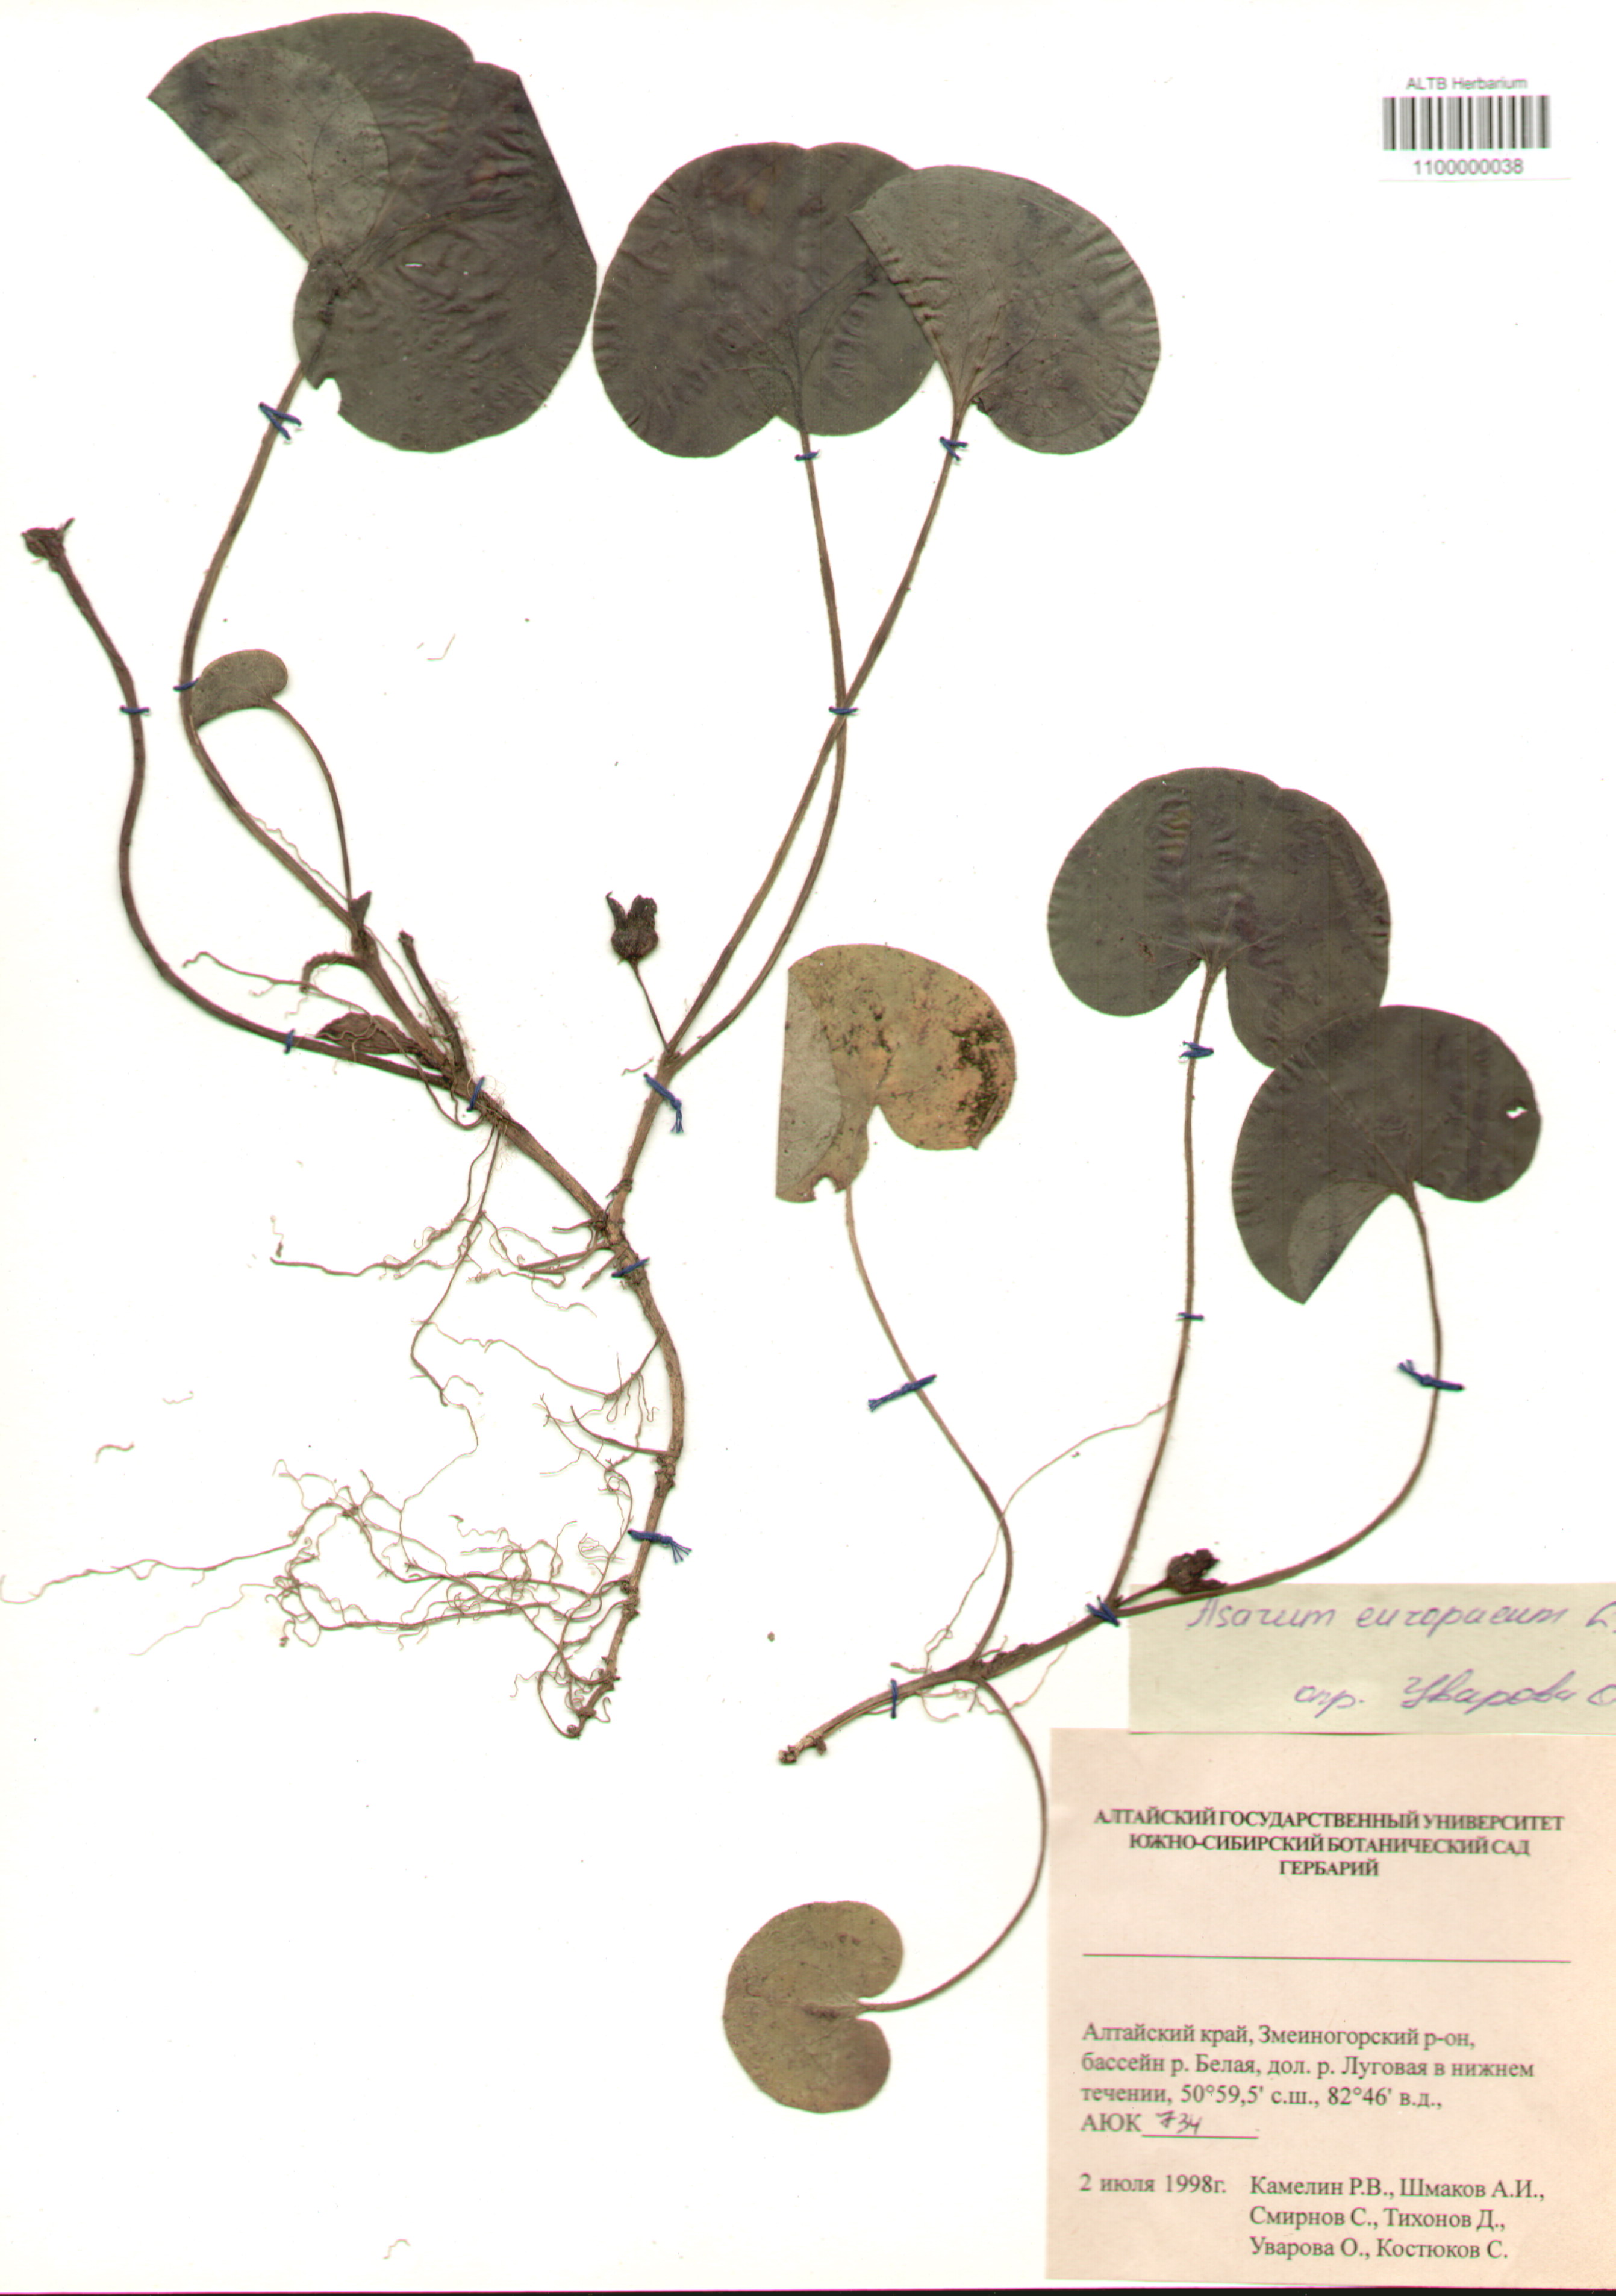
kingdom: Plantae
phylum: Tracheophyta
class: Magnoliopsida
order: Piperales
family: Aristolochiaceae
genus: Asarum
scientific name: Asarum europaeum
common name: Asarabacca
